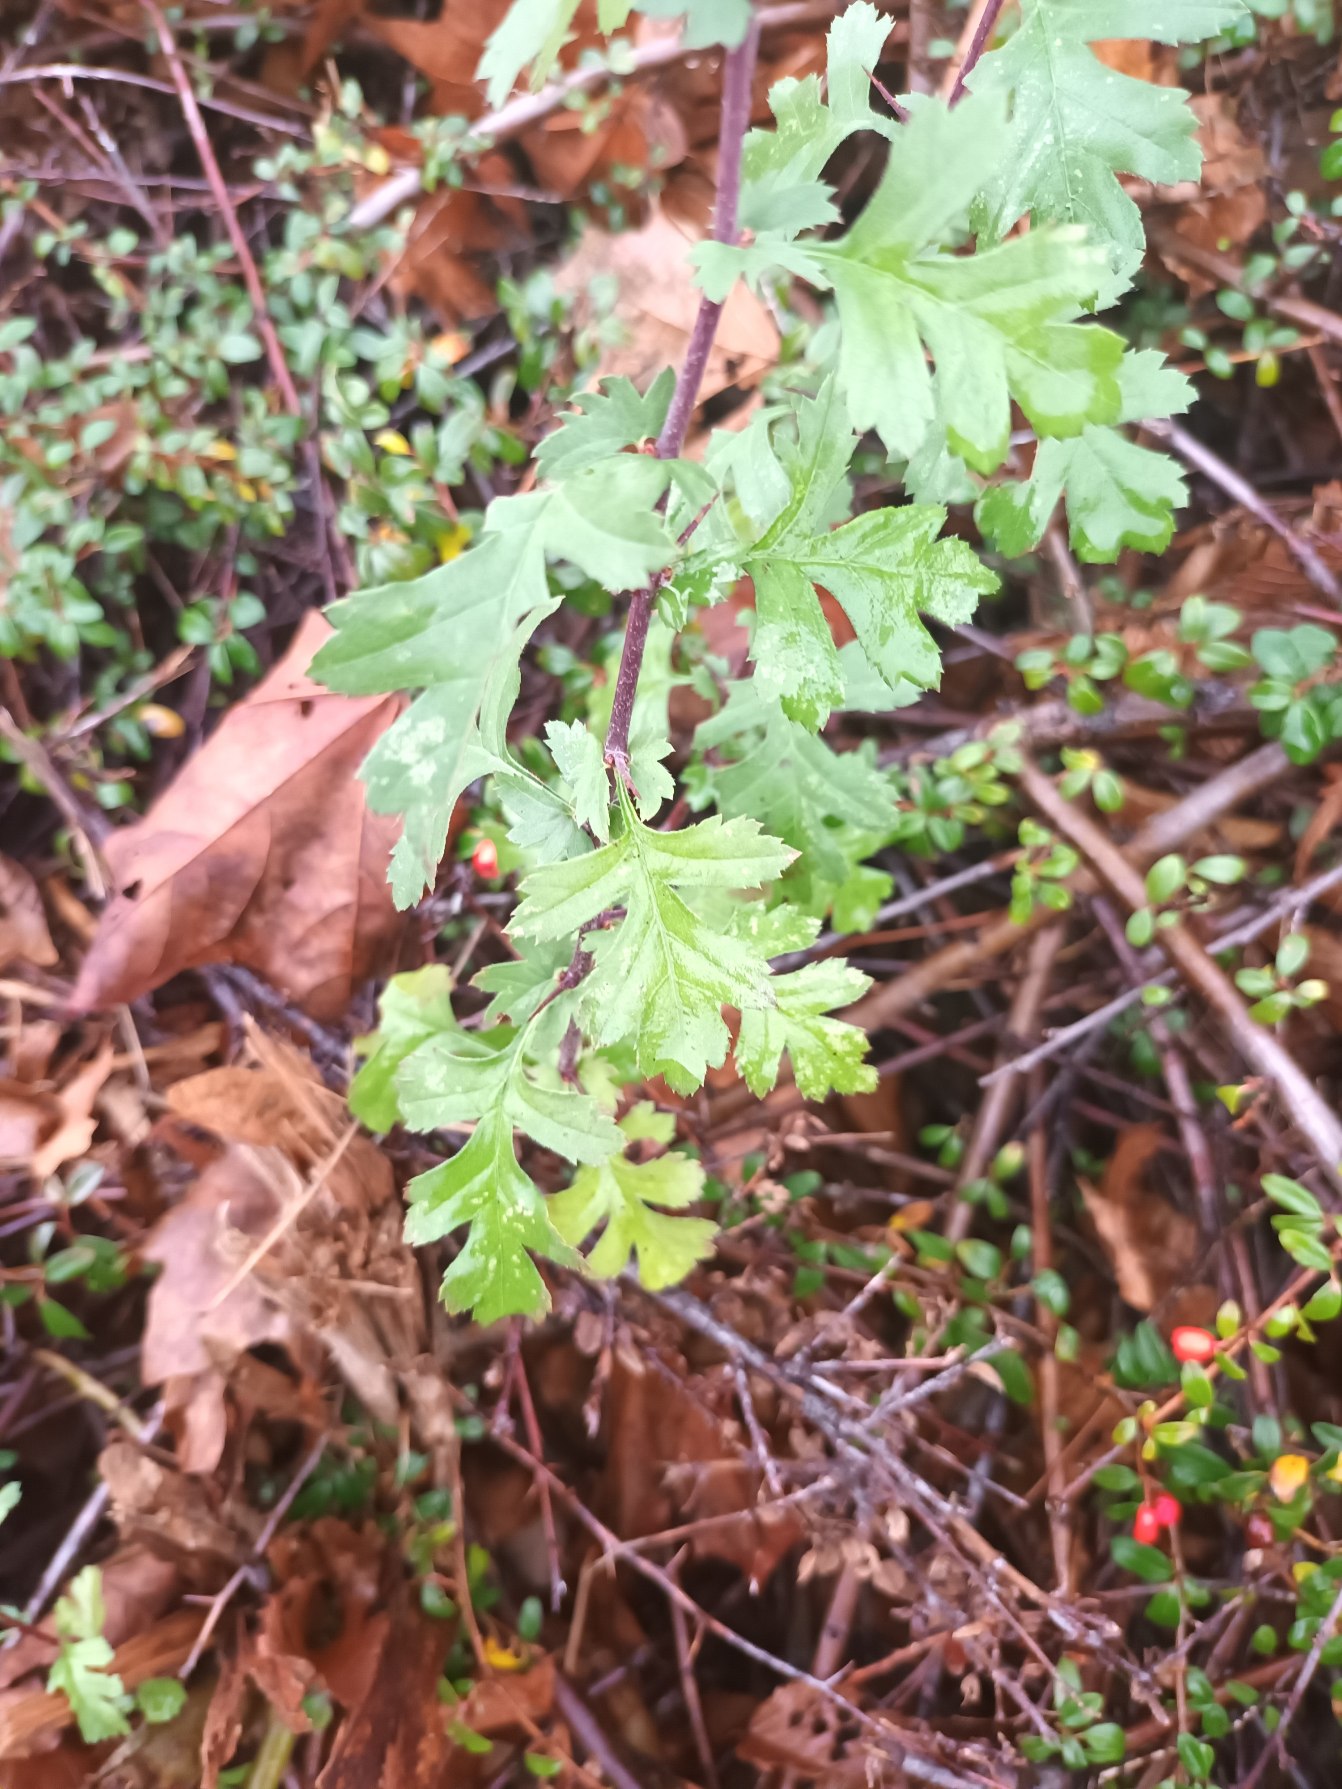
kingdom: Plantae
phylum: Tracheophyta
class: Magnoliopsida
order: Rosales
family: Rosaceae
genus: Crataegus
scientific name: Crataegus monogyna
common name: Engriflet hvidtjørn
